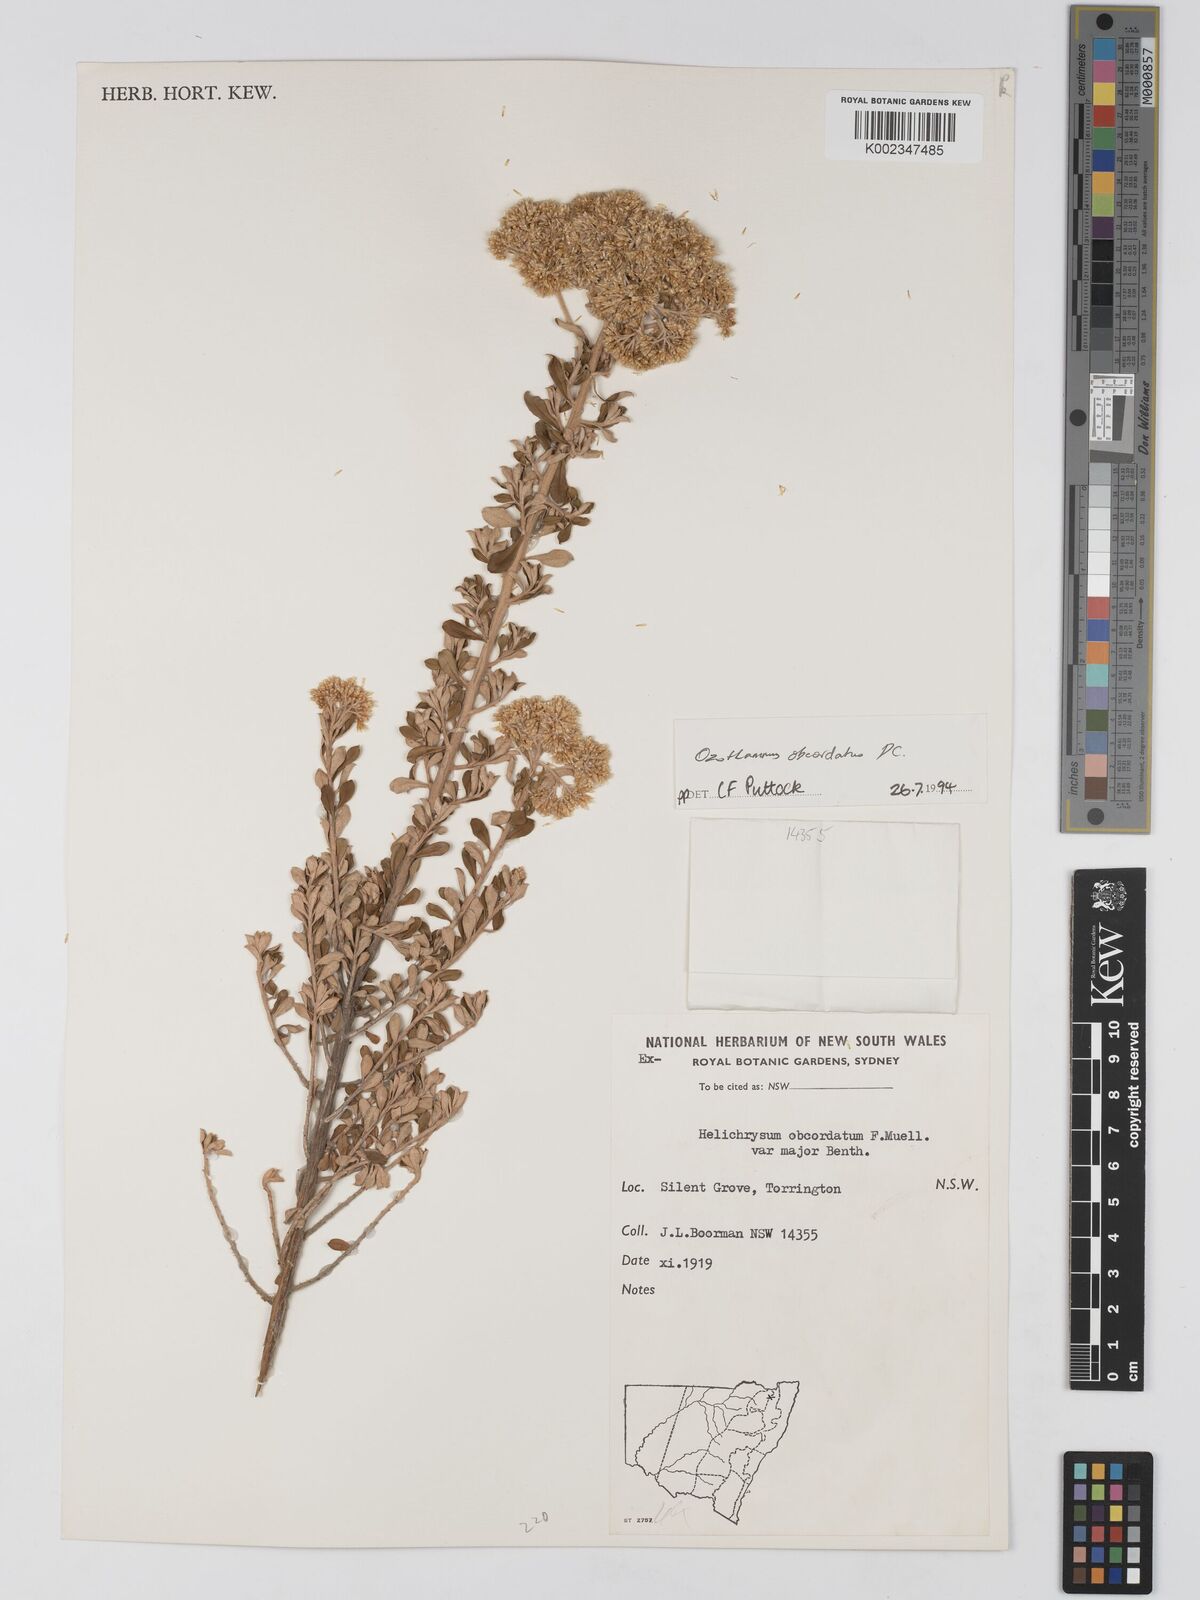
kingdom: Plantae
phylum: Tracheophyta
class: Magnoliopsida
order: Asterales
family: Asteraceae
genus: Ozothamnus
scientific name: Ozothamnus obcordatus
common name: Grey everlasting
